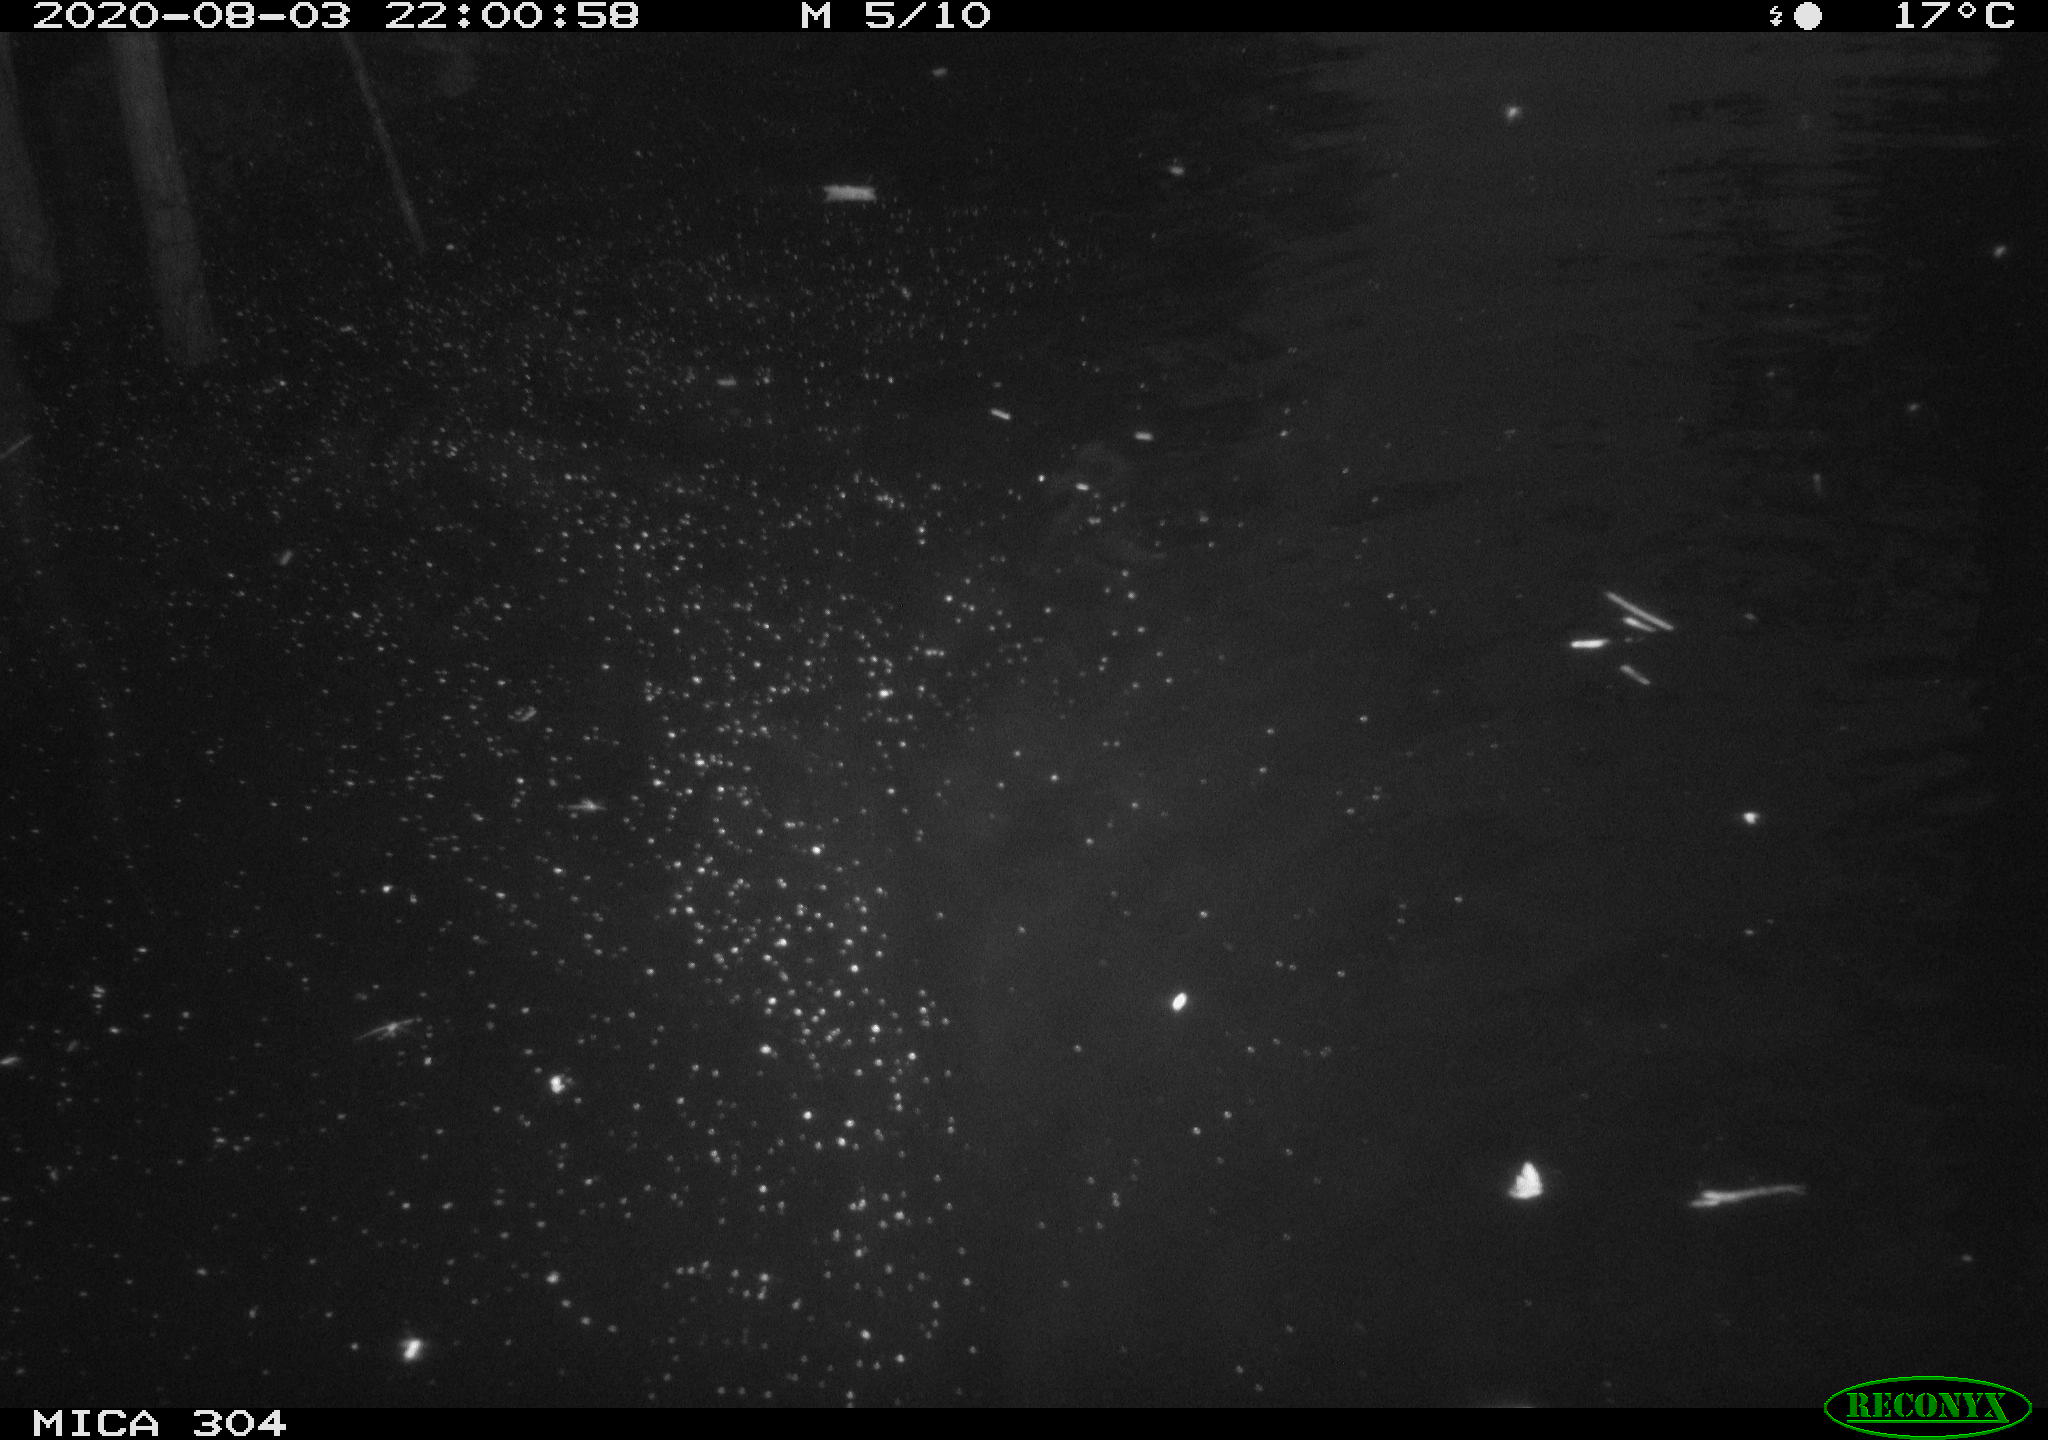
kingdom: Animalia
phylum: Chordata
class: Mammalia
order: Rodentia
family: Cricetidae
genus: Ondatra
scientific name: Ondatra zibethicus
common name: Muskrat
